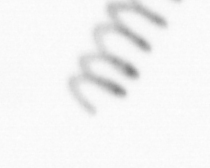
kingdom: Chromista
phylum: Ochrophyta
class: Bacillariophyceae
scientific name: Bacillariophyceae
